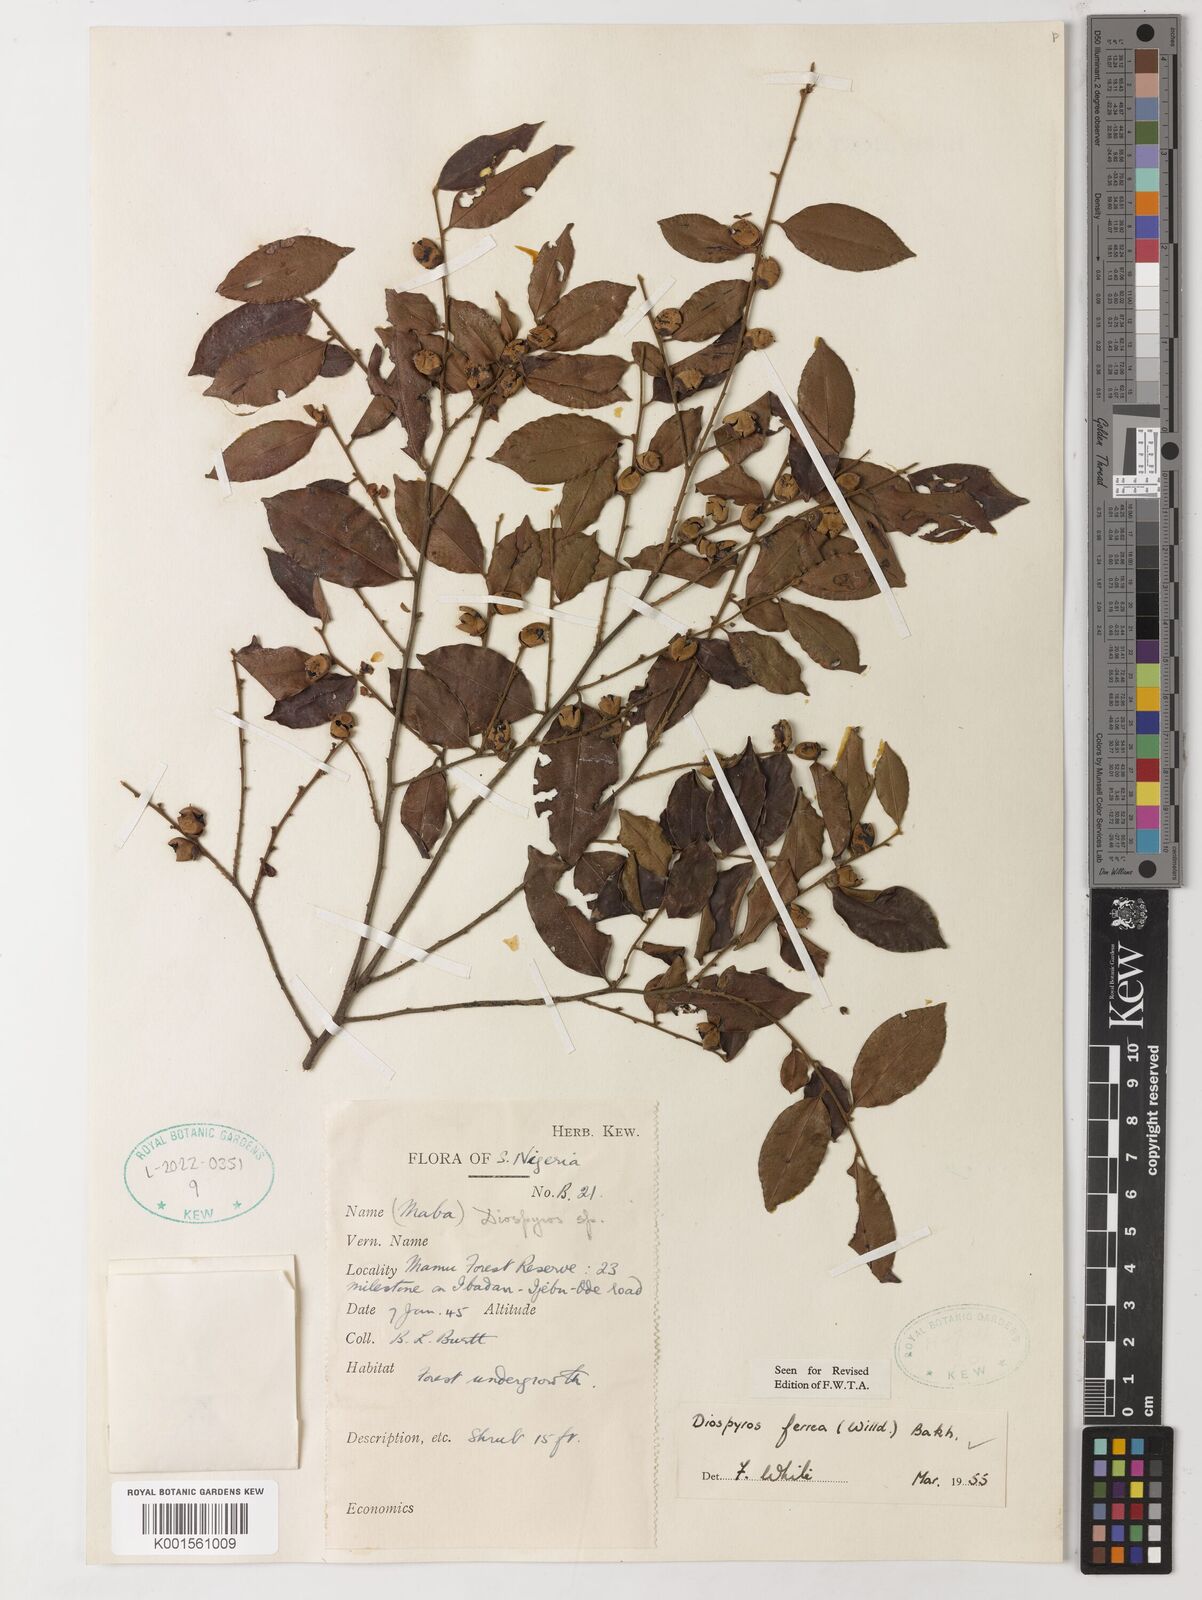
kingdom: Plantae
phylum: Tracheophyta
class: Magnoliopsida
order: Ericales
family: Ebenaceae
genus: Diospyros
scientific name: Diospyros ferrea
